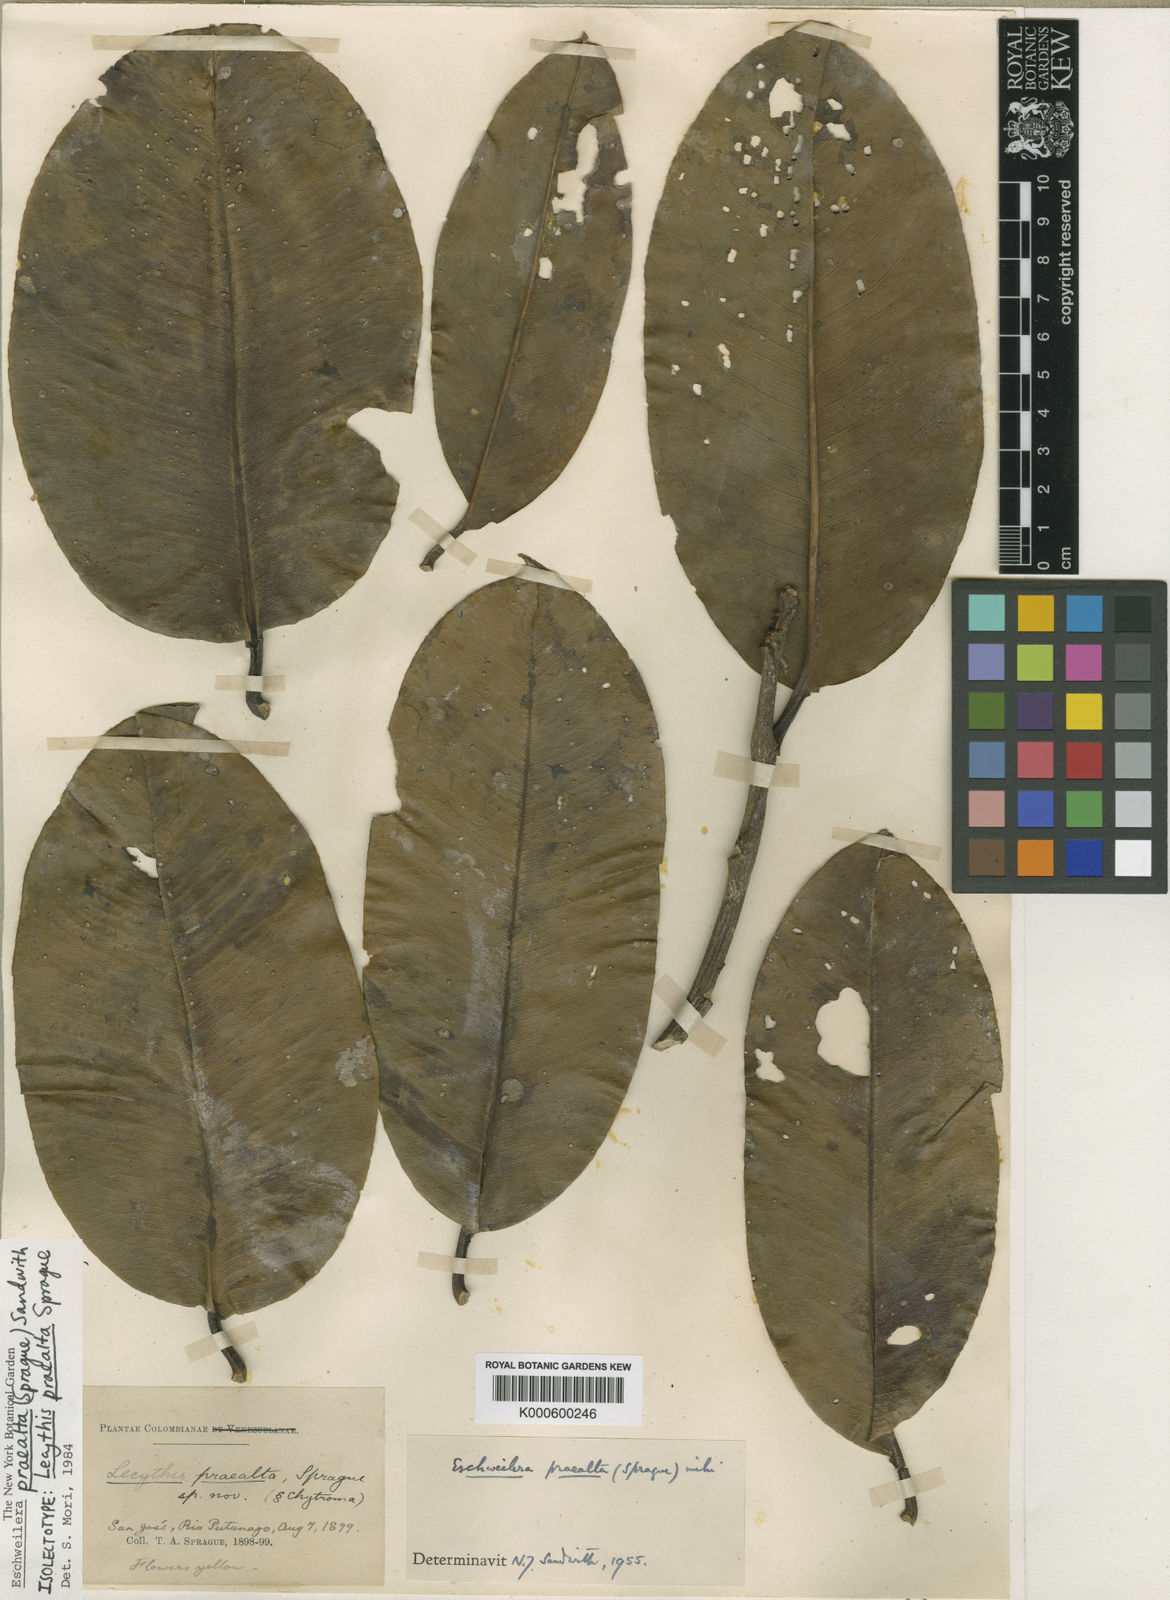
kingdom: Plantae
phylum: Tracheophyta
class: Magnoliopsida
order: Ericales
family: Lecythidaceae
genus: Eschweilera
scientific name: Eschweilera praealta
